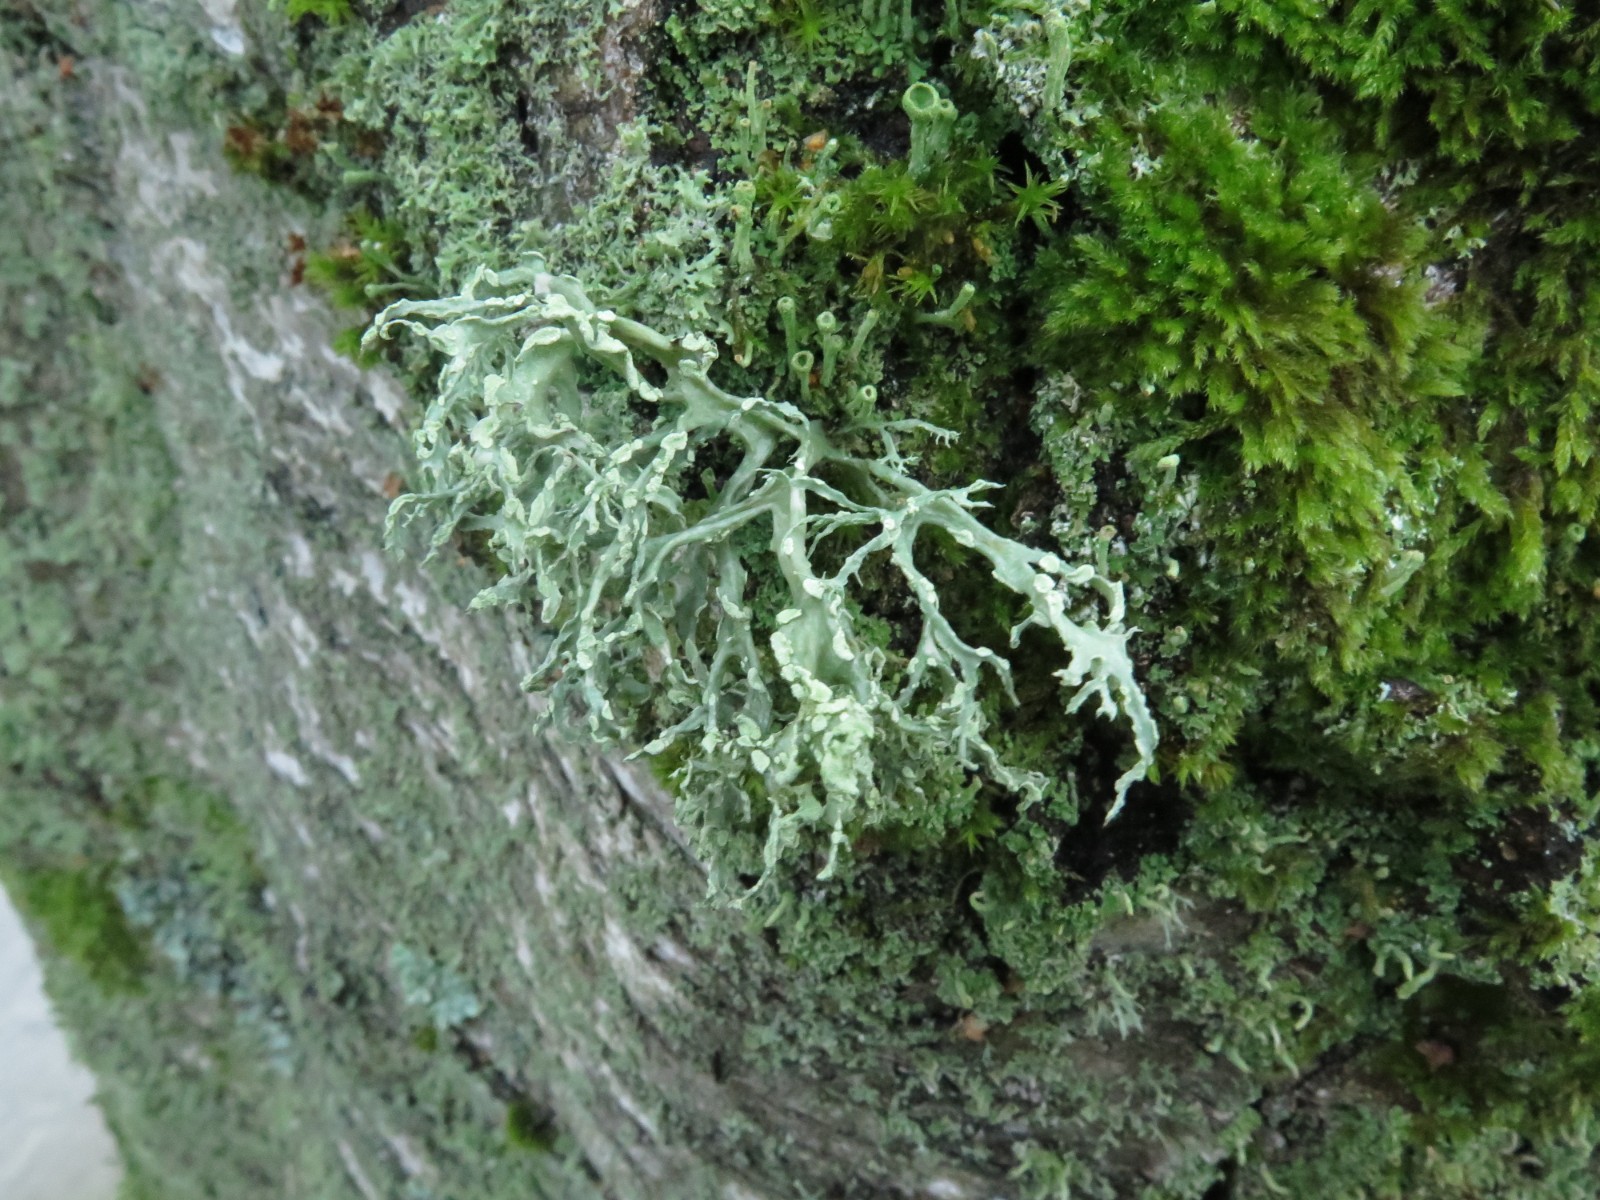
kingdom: Fungi
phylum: Ascomycota
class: Lecanoromycetes
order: Lecanorales
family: Ramalinaceae
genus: Ramalina
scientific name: Ramalina farinacea
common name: melet grenlav
